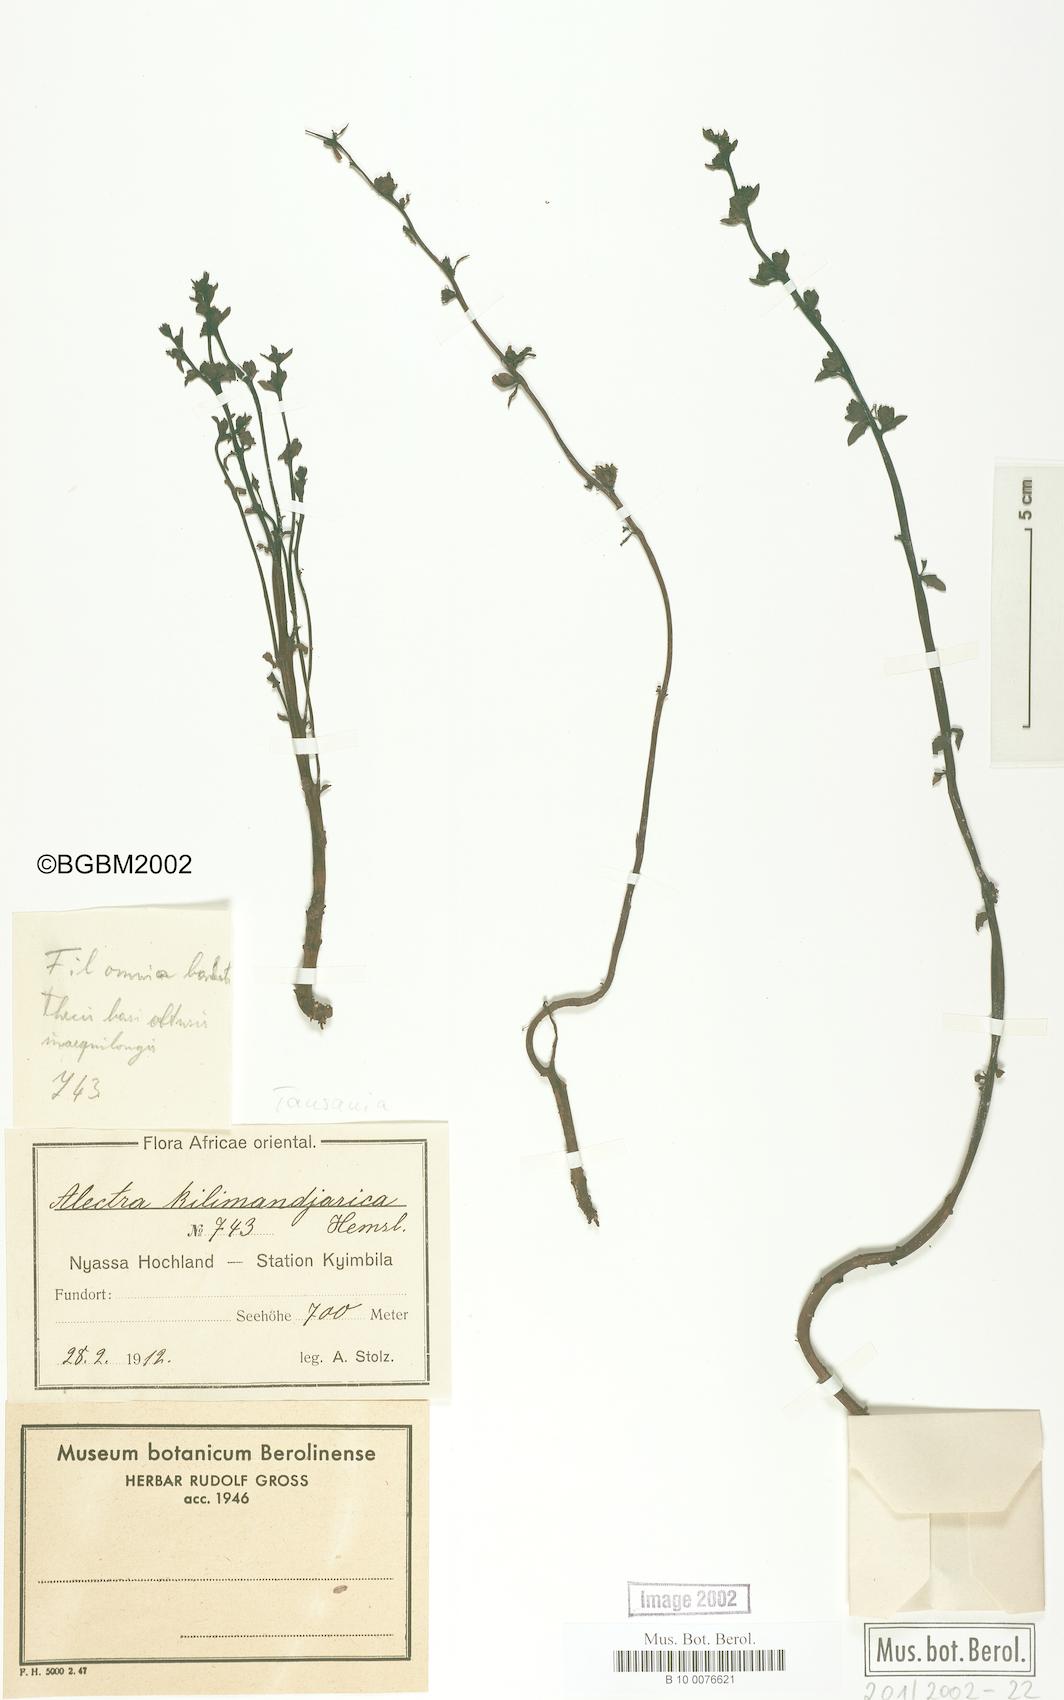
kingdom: Plantae
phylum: Tracheophyta
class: Magnoliopsida
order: Lamiales
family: Orobanchaceae
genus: Alectra
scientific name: Alectra orobanchoides
